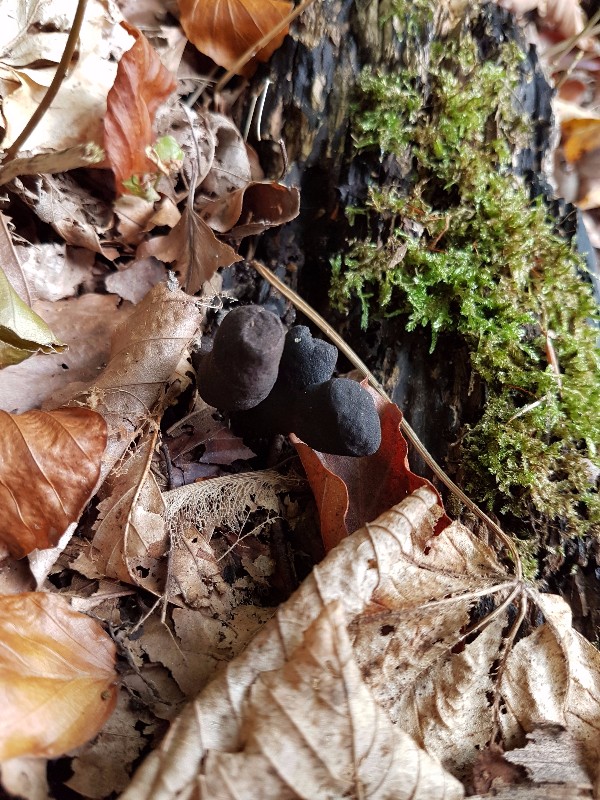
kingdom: Fungi
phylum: Ascomycota
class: Sordariomycetes
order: Xylariales
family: Xylariaceae
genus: Xylaria
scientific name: Xylaria polymorpha
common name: kølle-stødsvamp
